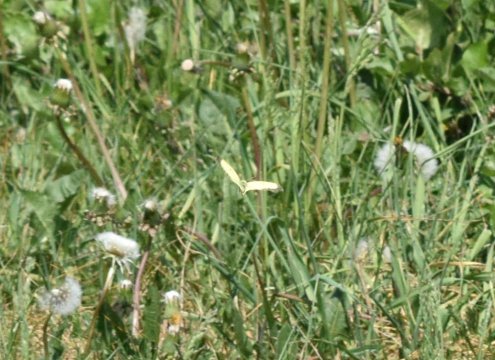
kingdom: Animalia
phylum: Arthropoda
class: Insecta
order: Lepidoptera
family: Pieridae
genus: Colias
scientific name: Colias philodice
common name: Clouded Sulphur
